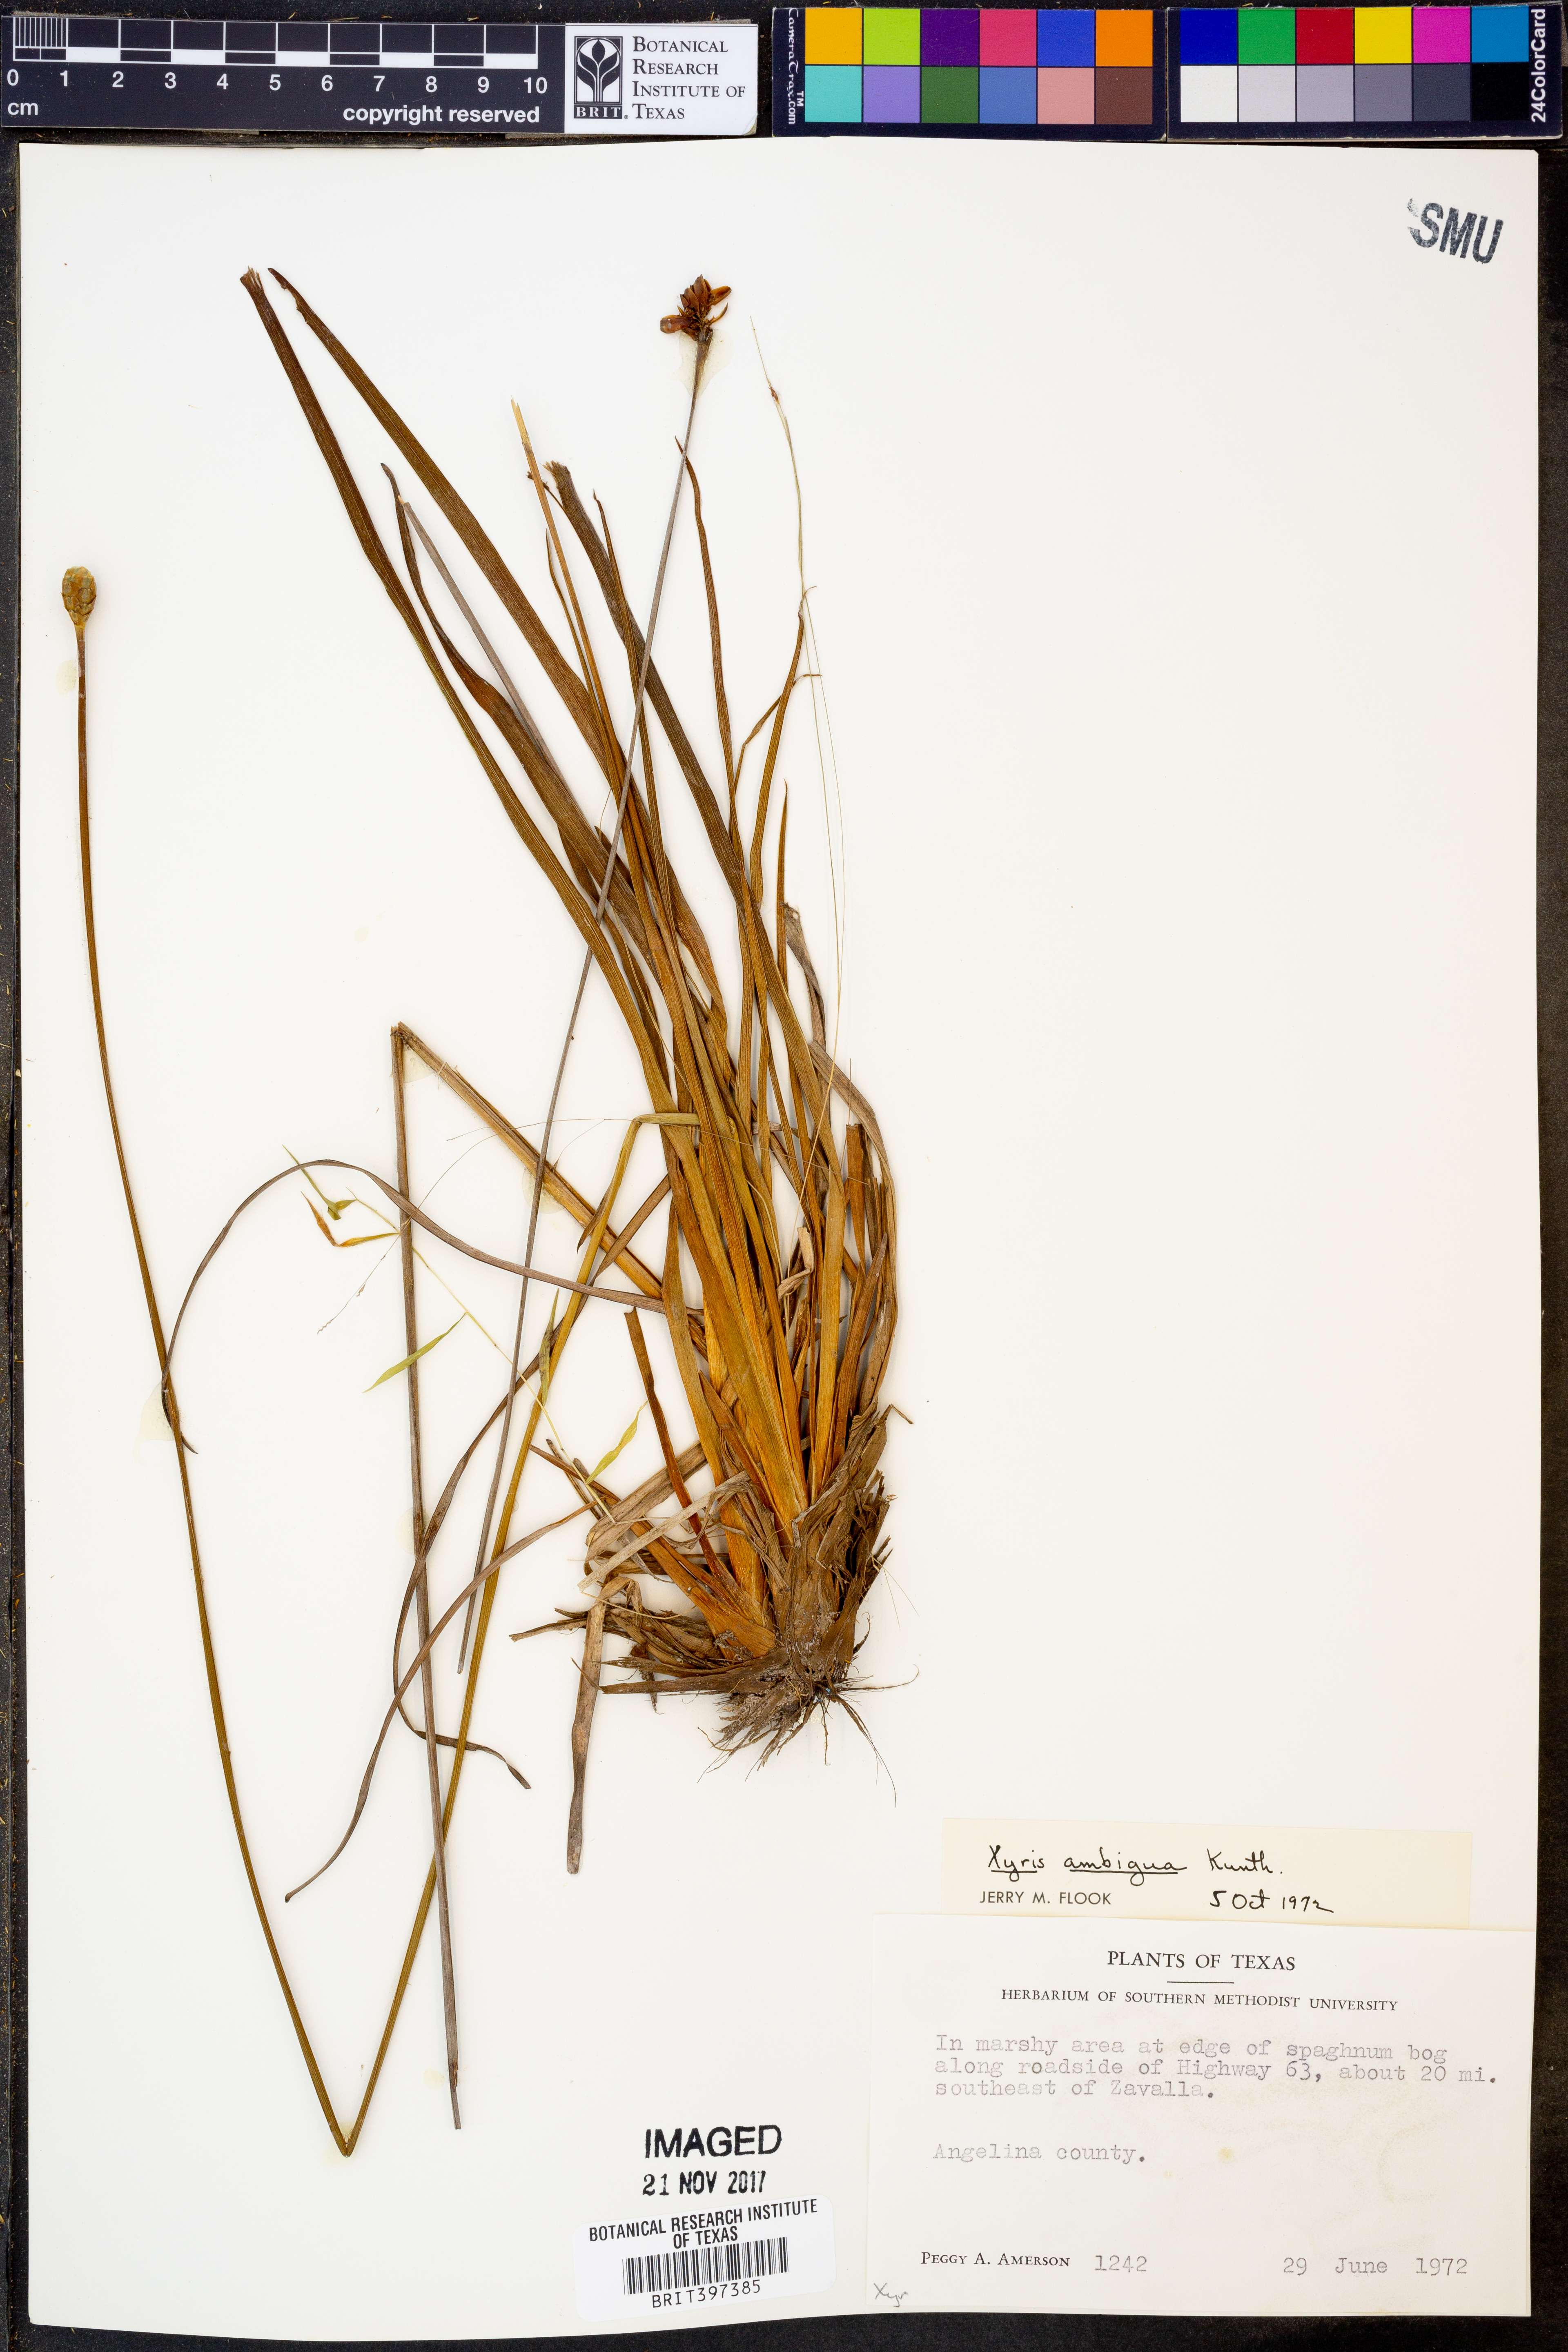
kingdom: Plantae
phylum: Tracheophyta
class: Liliopsida
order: Poales
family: Xyridaceae
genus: Xyris
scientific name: Xyris ambigua
